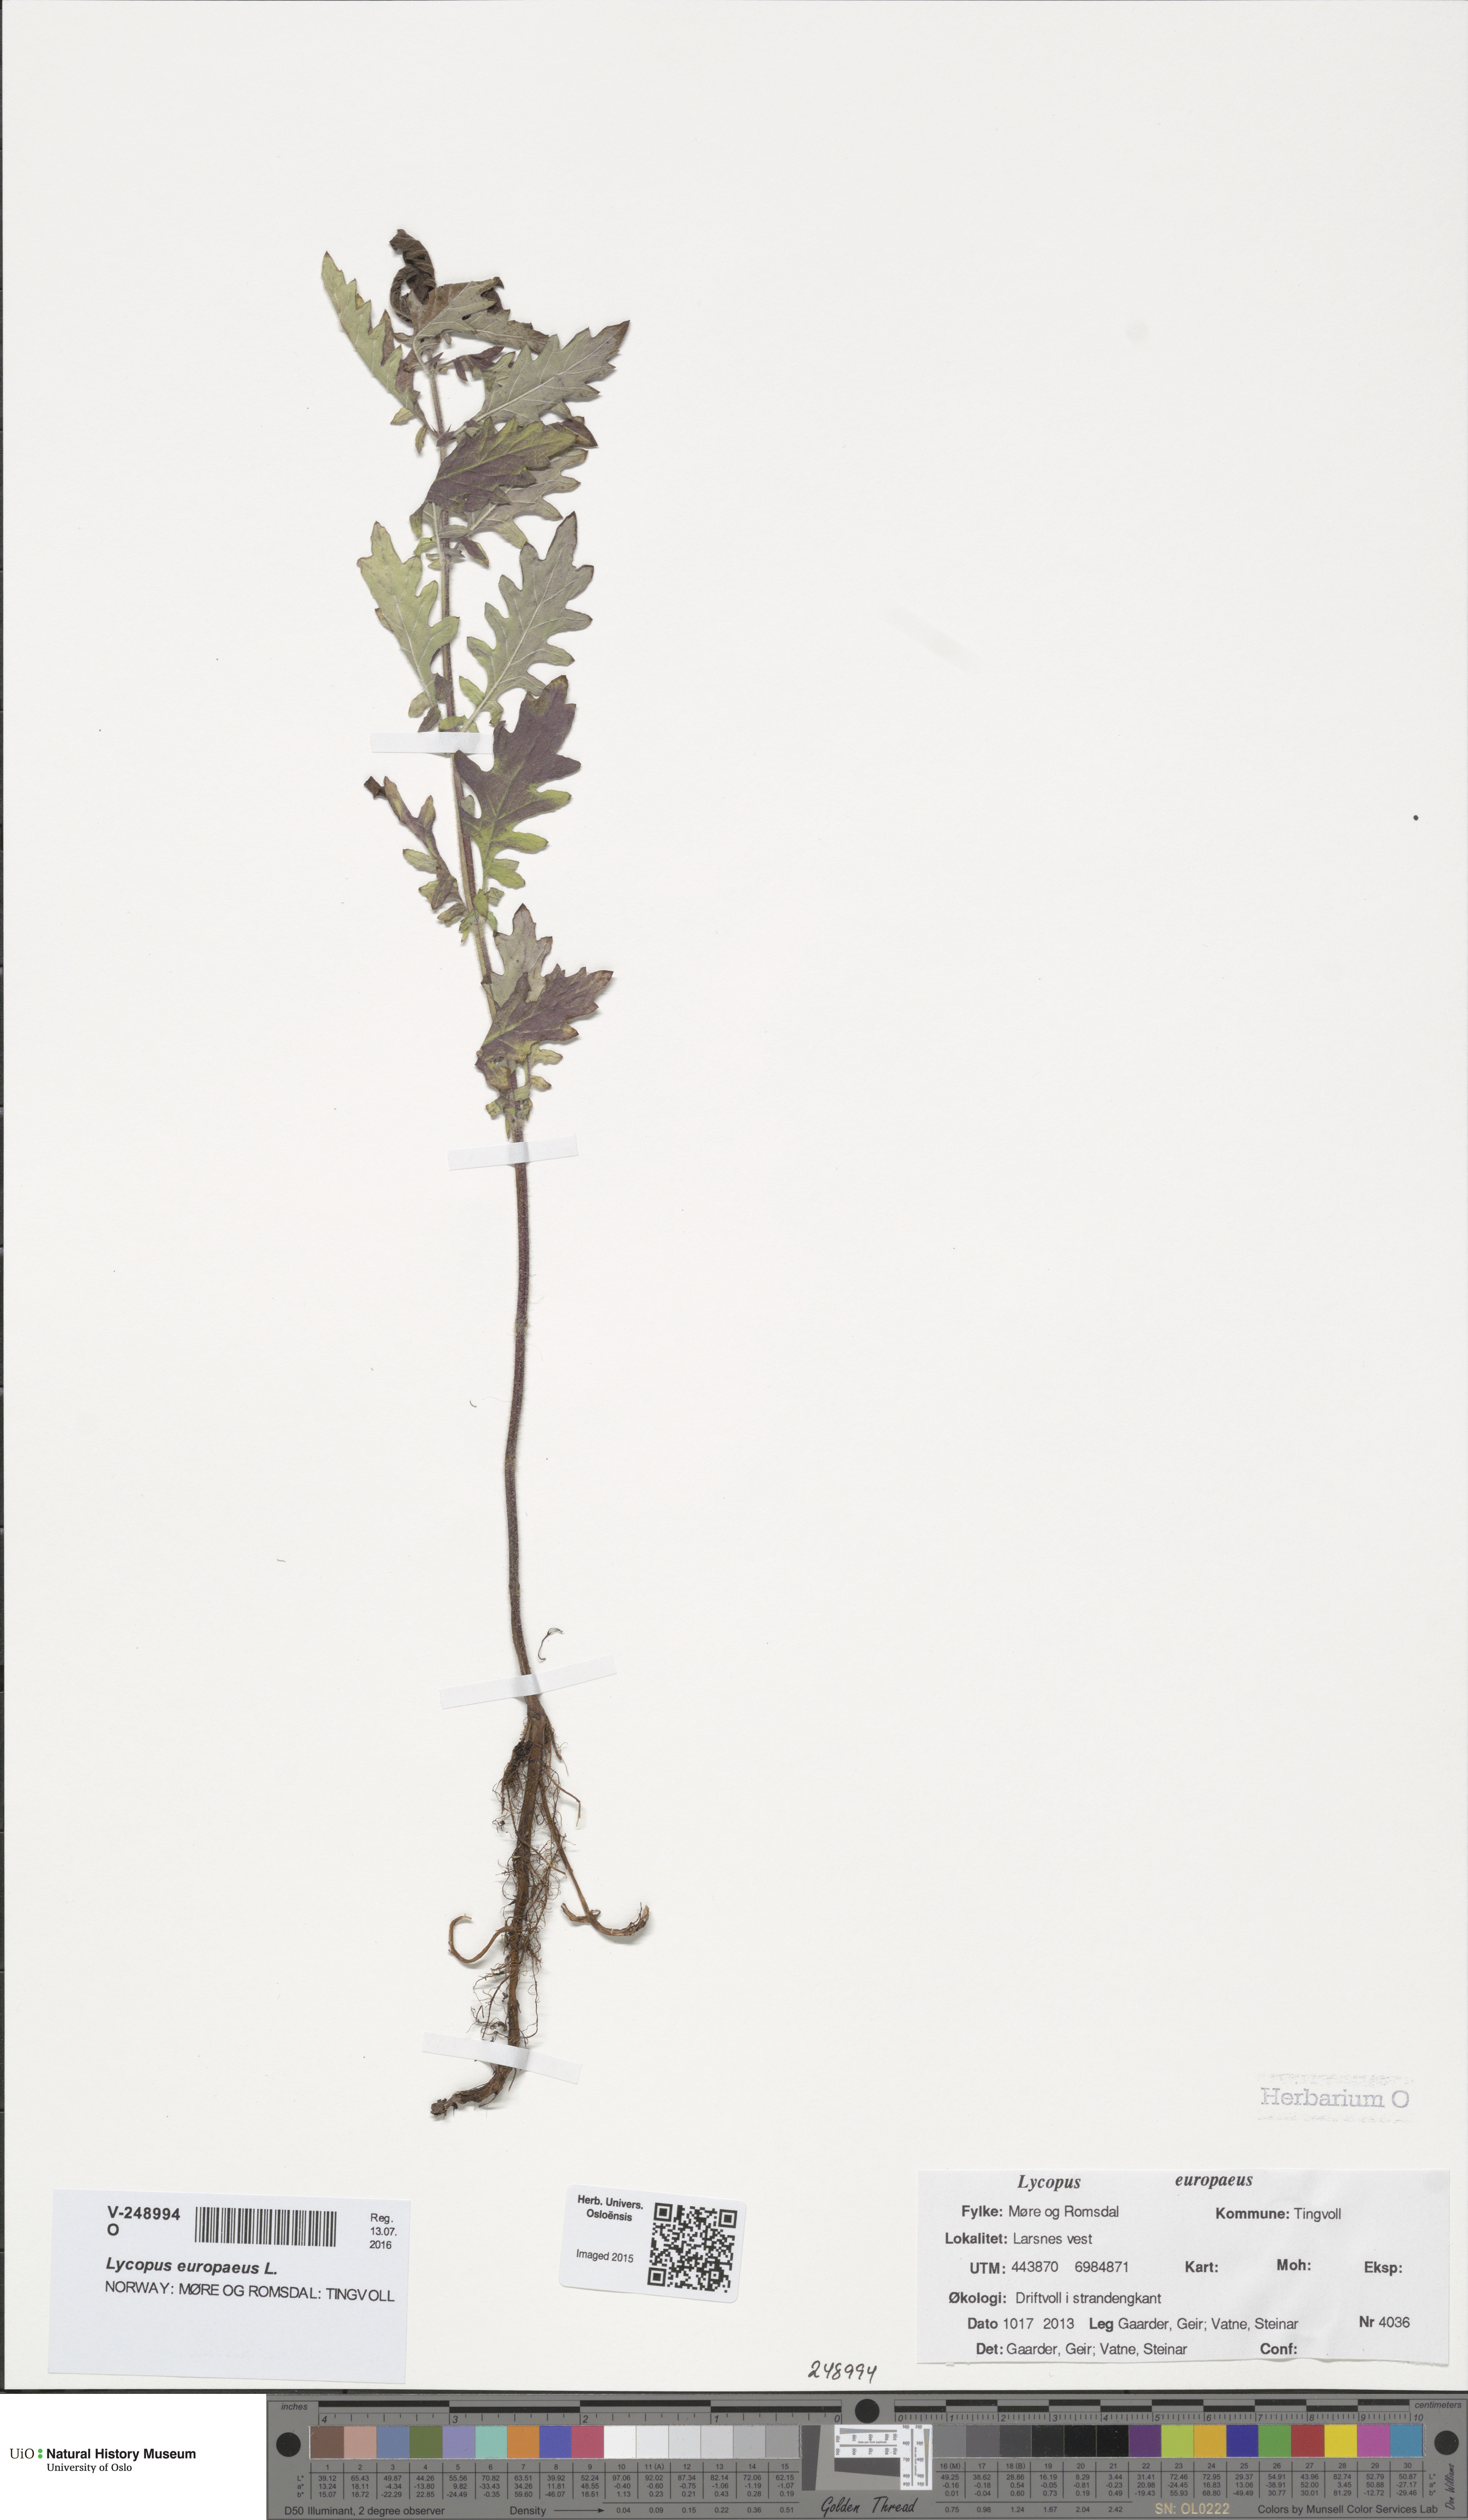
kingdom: Plantae
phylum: Tracheophyta
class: Magnoliopsida
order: Lamiales
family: Lamiaceae
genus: Lycopus
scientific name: Lycopus europaeus
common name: European bugleweed
